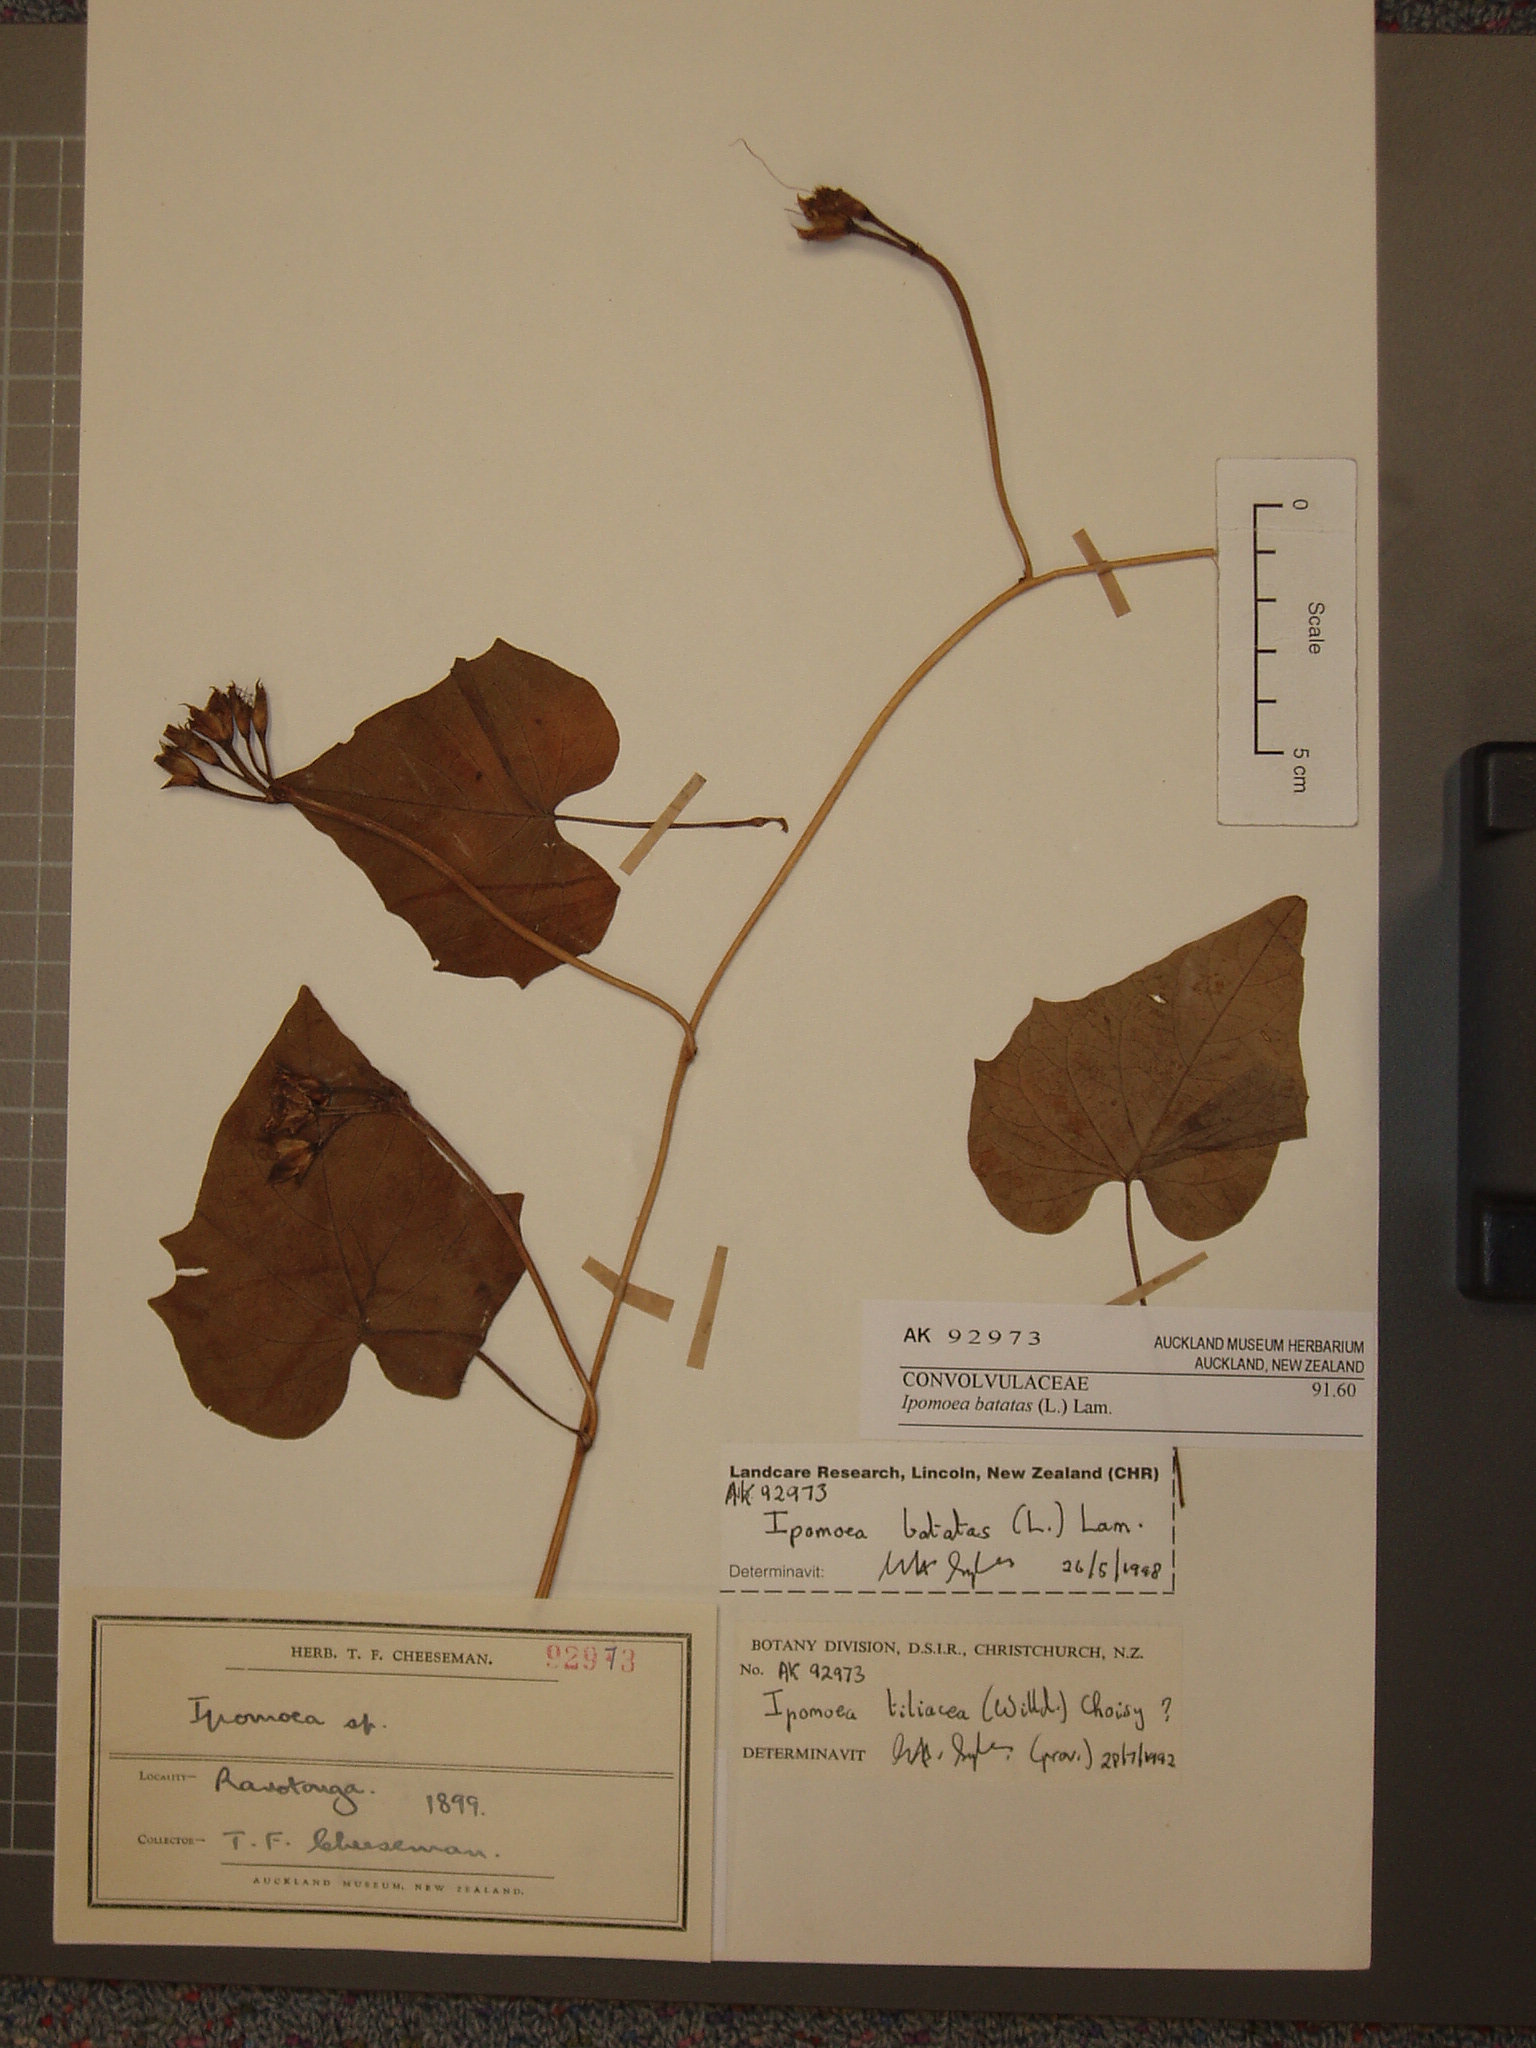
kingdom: Plantae
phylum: Tracheophyta
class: Magnoliopsida
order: Solanales
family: Convolvulaceae
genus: Ipomoea
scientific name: Ipomoea batatas
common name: Sweet-potato
